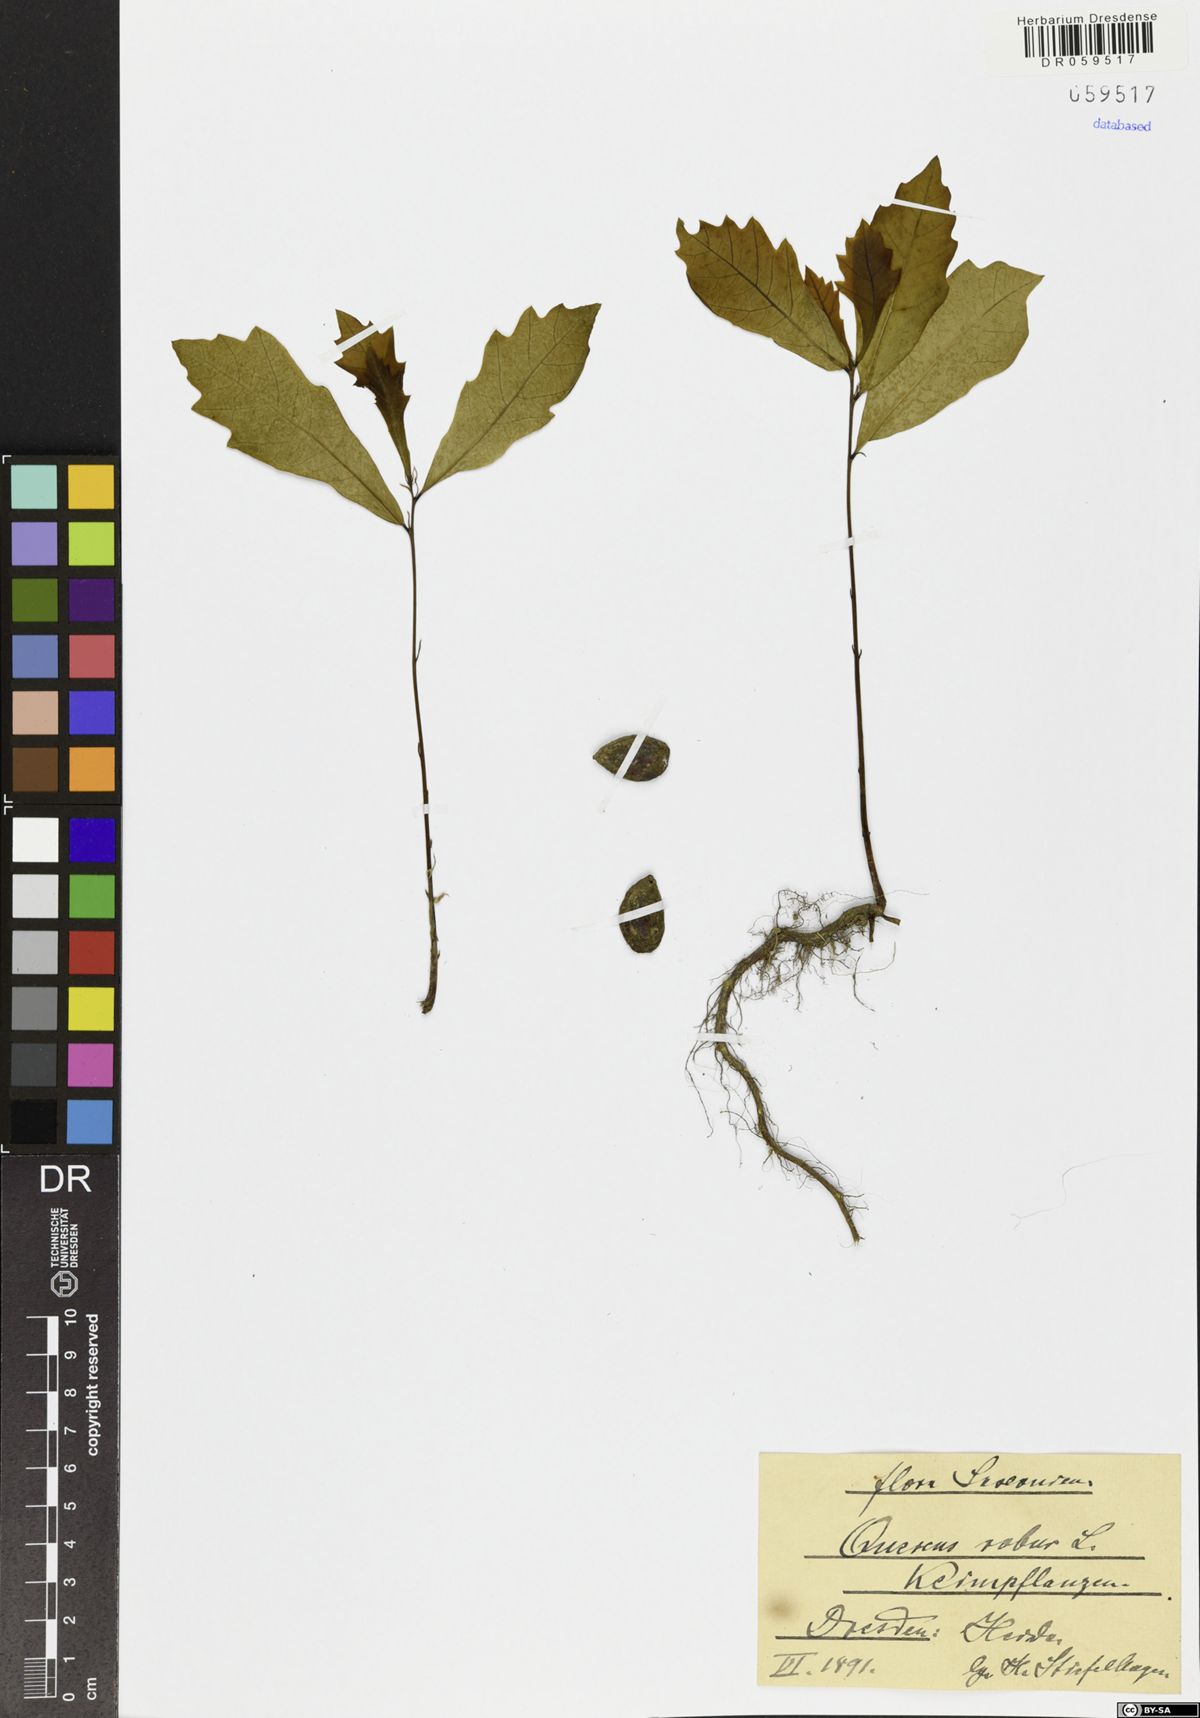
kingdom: Plantae
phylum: Tracheophyta
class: Magnoliopsida
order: Fagales
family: Fagaceae
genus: Quercus
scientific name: Quercus robur
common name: Pedunculate oak
